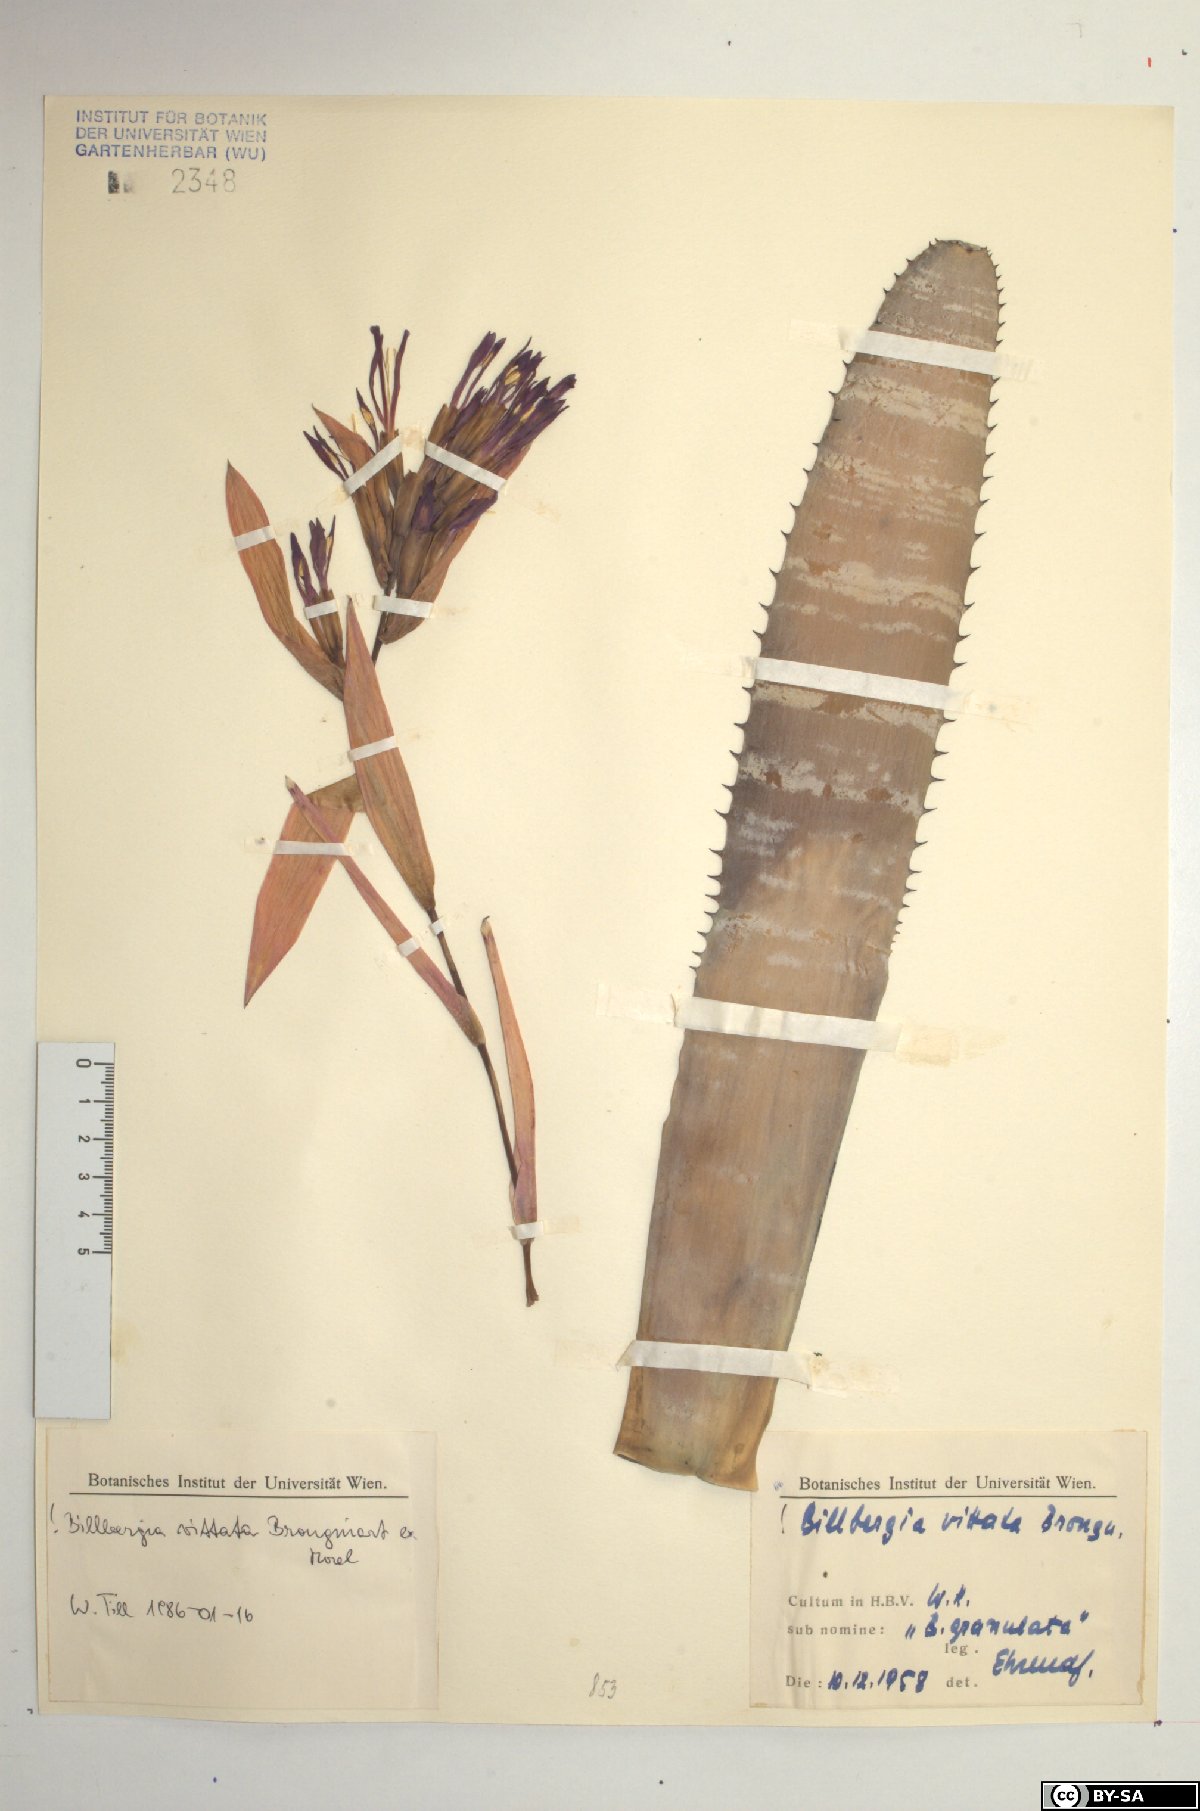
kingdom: Plantae
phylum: Tracheophyta
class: Liliopsida
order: Poales
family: Bromeliaceae
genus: Billbergia
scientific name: Billbergia vittata
